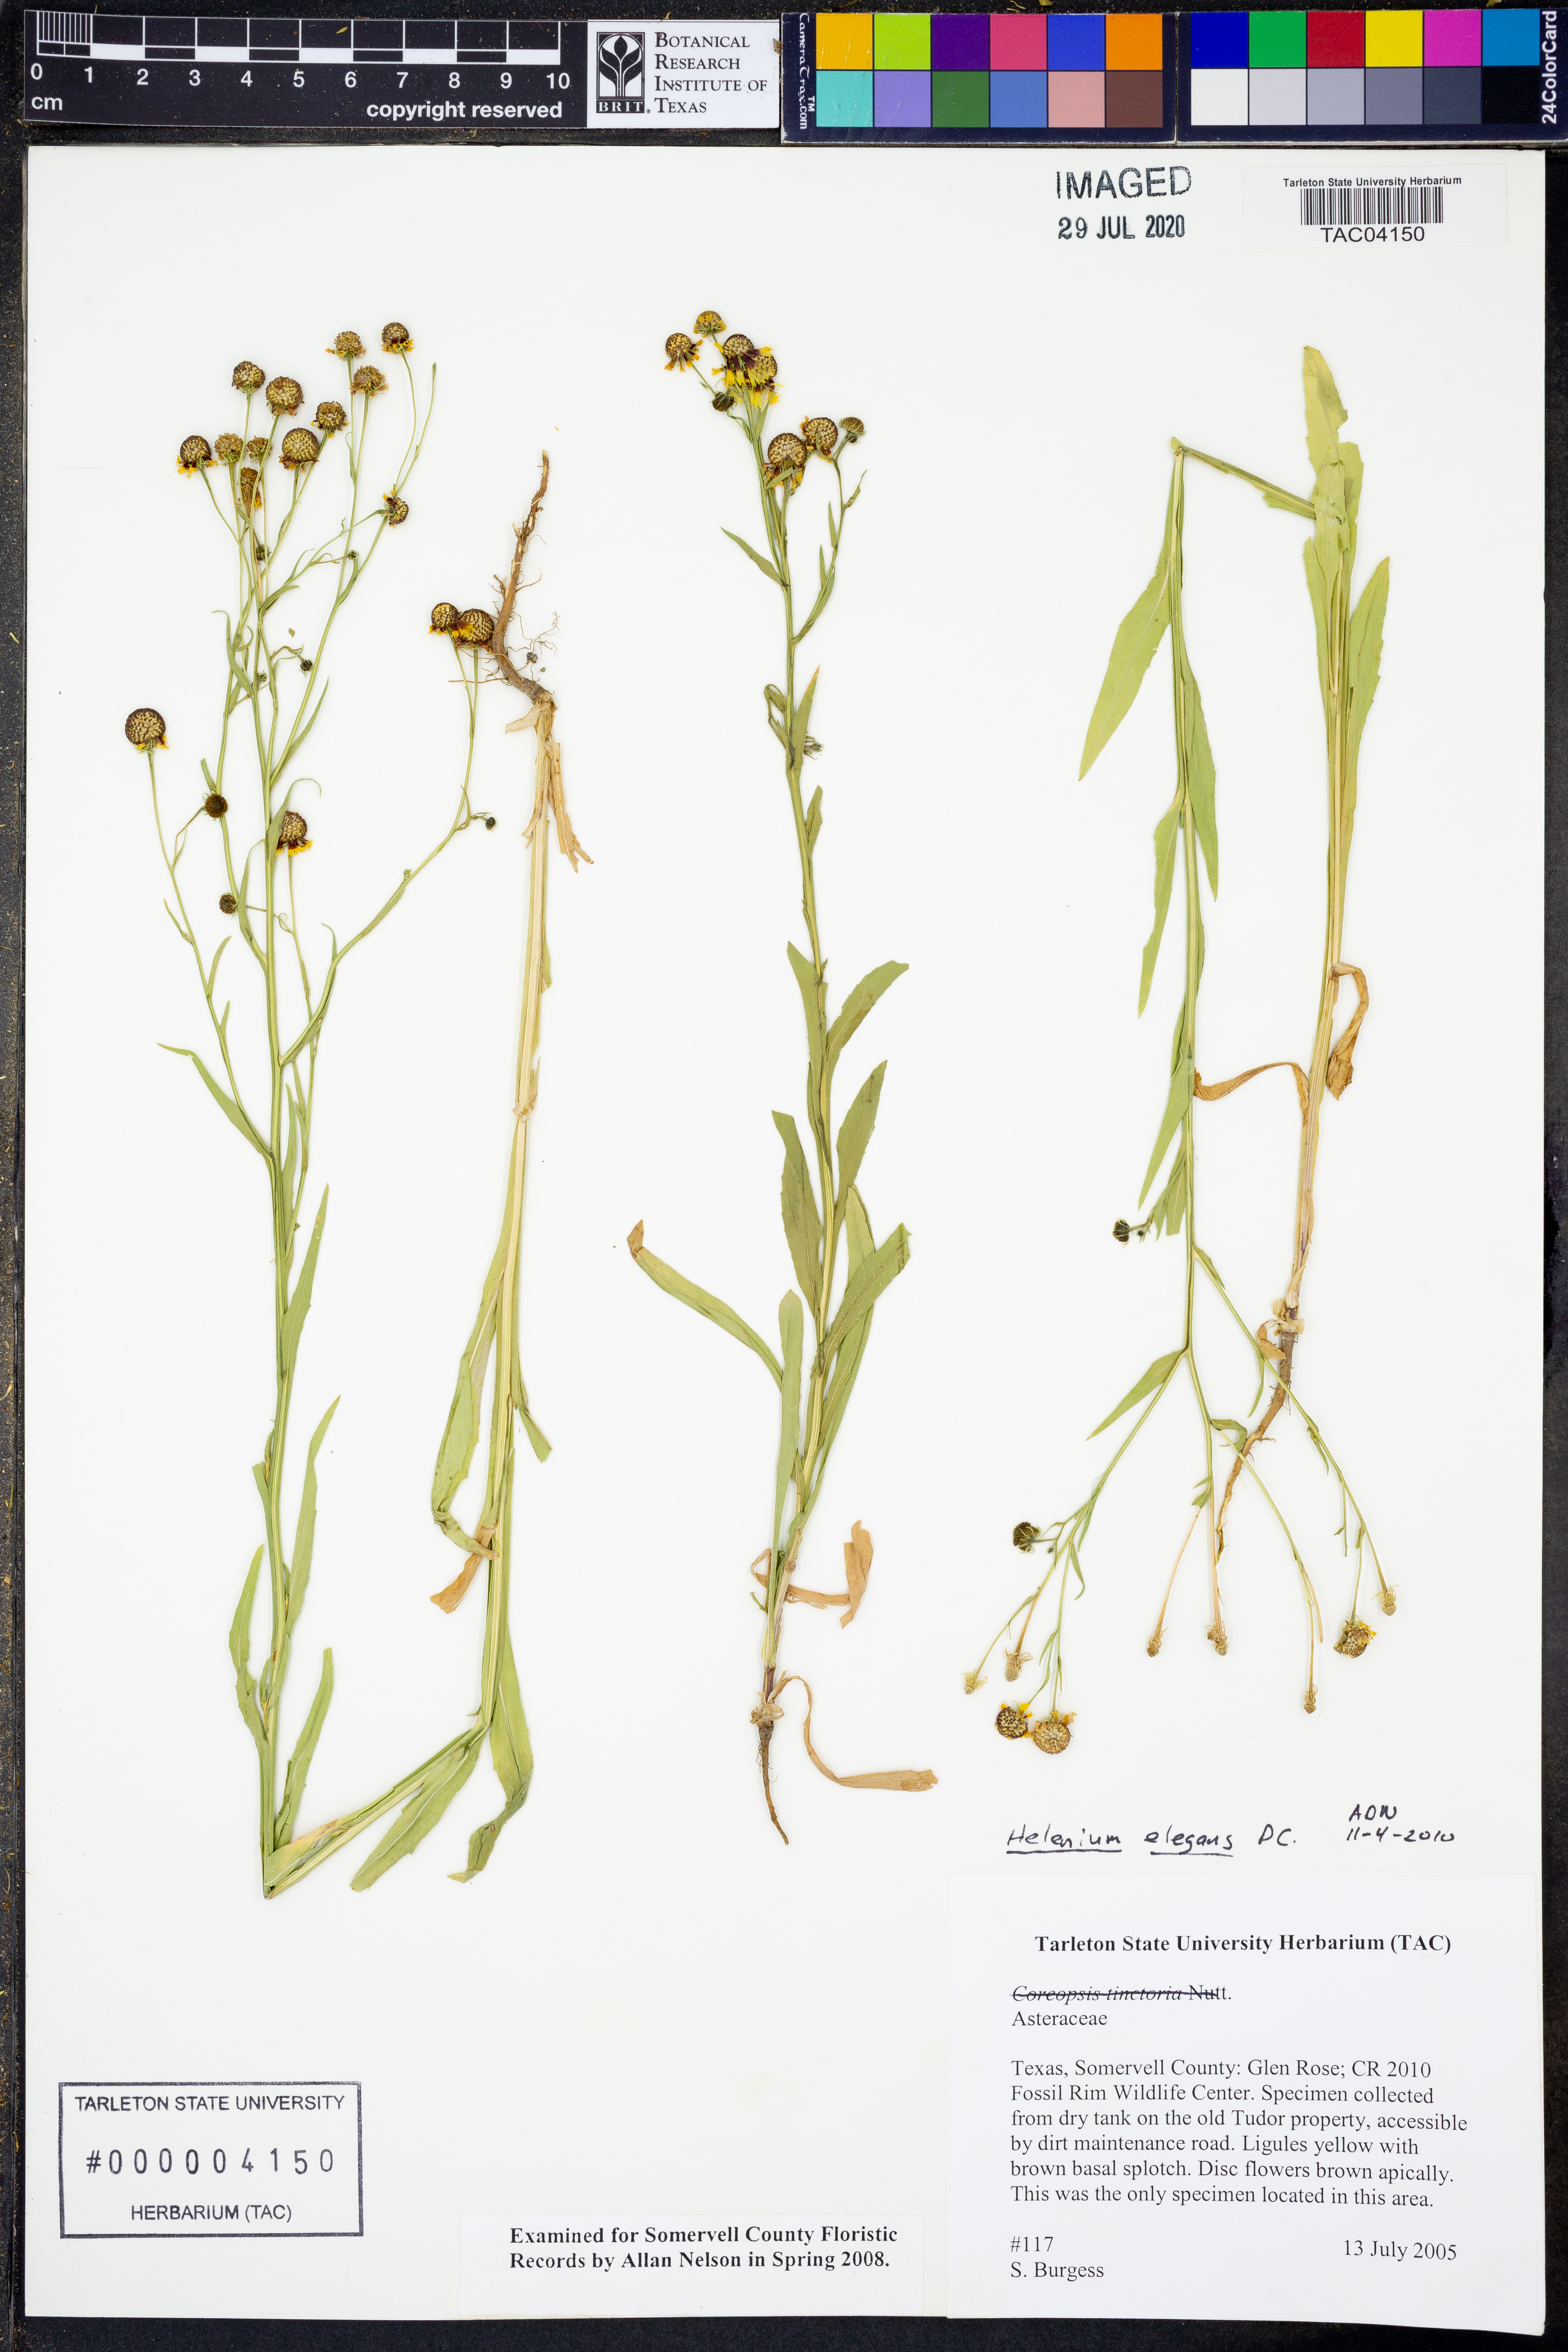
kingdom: Plantae
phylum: Tracheophyta
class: Magnoliopsida
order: Asterales
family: Asteraceae
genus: Helenium
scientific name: Helenium elegans
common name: Pretty sneezeweed
